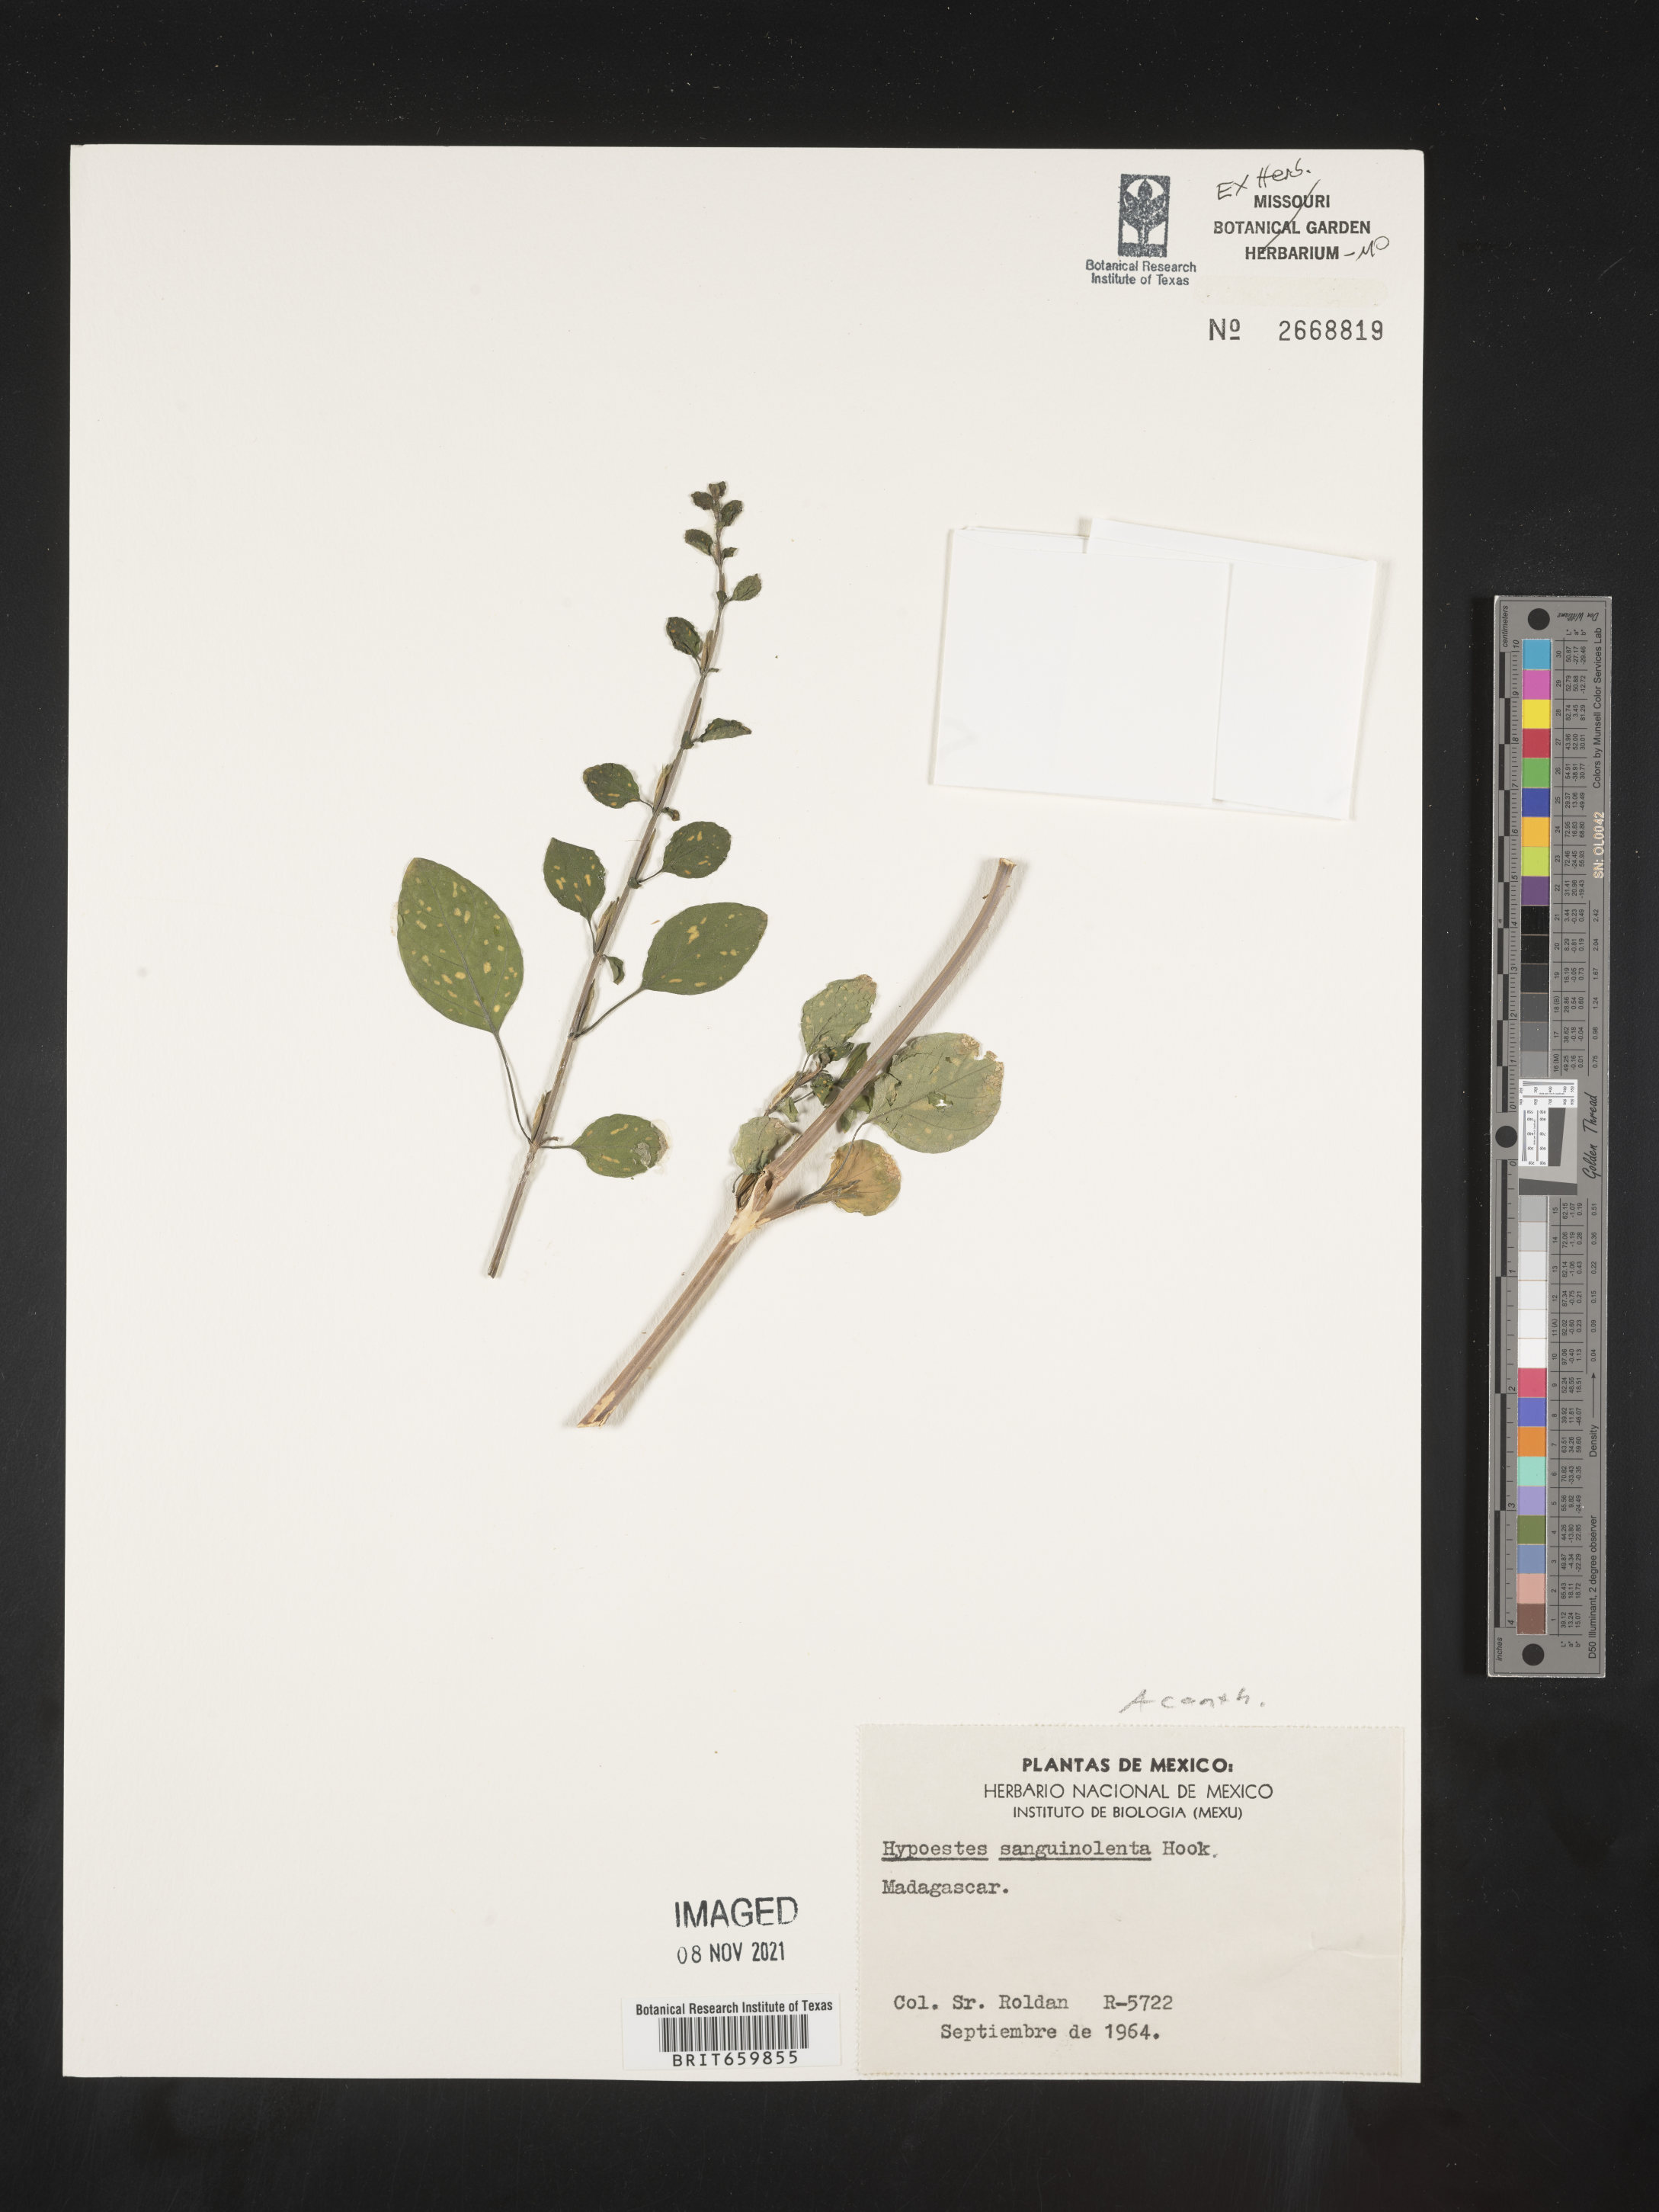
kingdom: Plantae
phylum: Tracheophyta
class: Magnoliopsida
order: Lamiales
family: Acanthaceae
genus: Hypoestes
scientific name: Hypoestes phyllostachya
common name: Polkadot-plant
